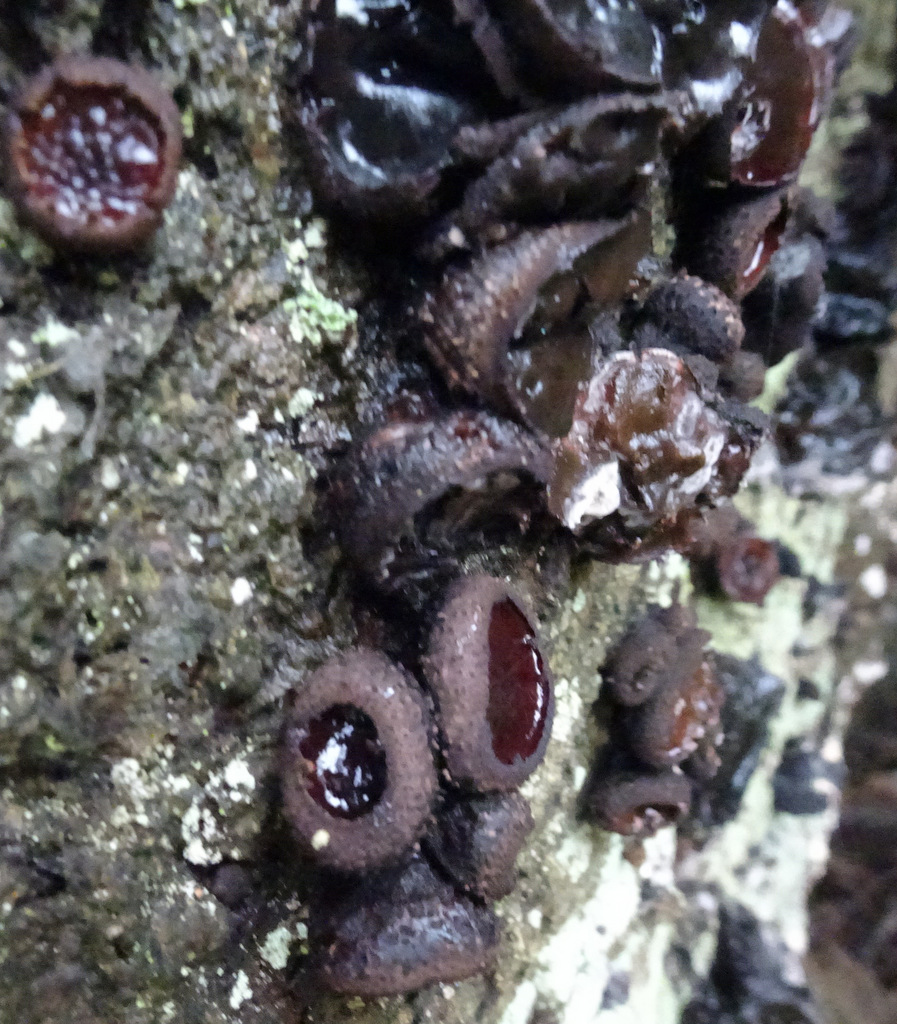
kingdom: Fungi
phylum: Ascomycota
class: Leotiomycetes
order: Phacidiales
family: Phacidiaceae
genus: Bulgaria
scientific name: Bulgaria inquinans
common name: afsmittende topsvamp
